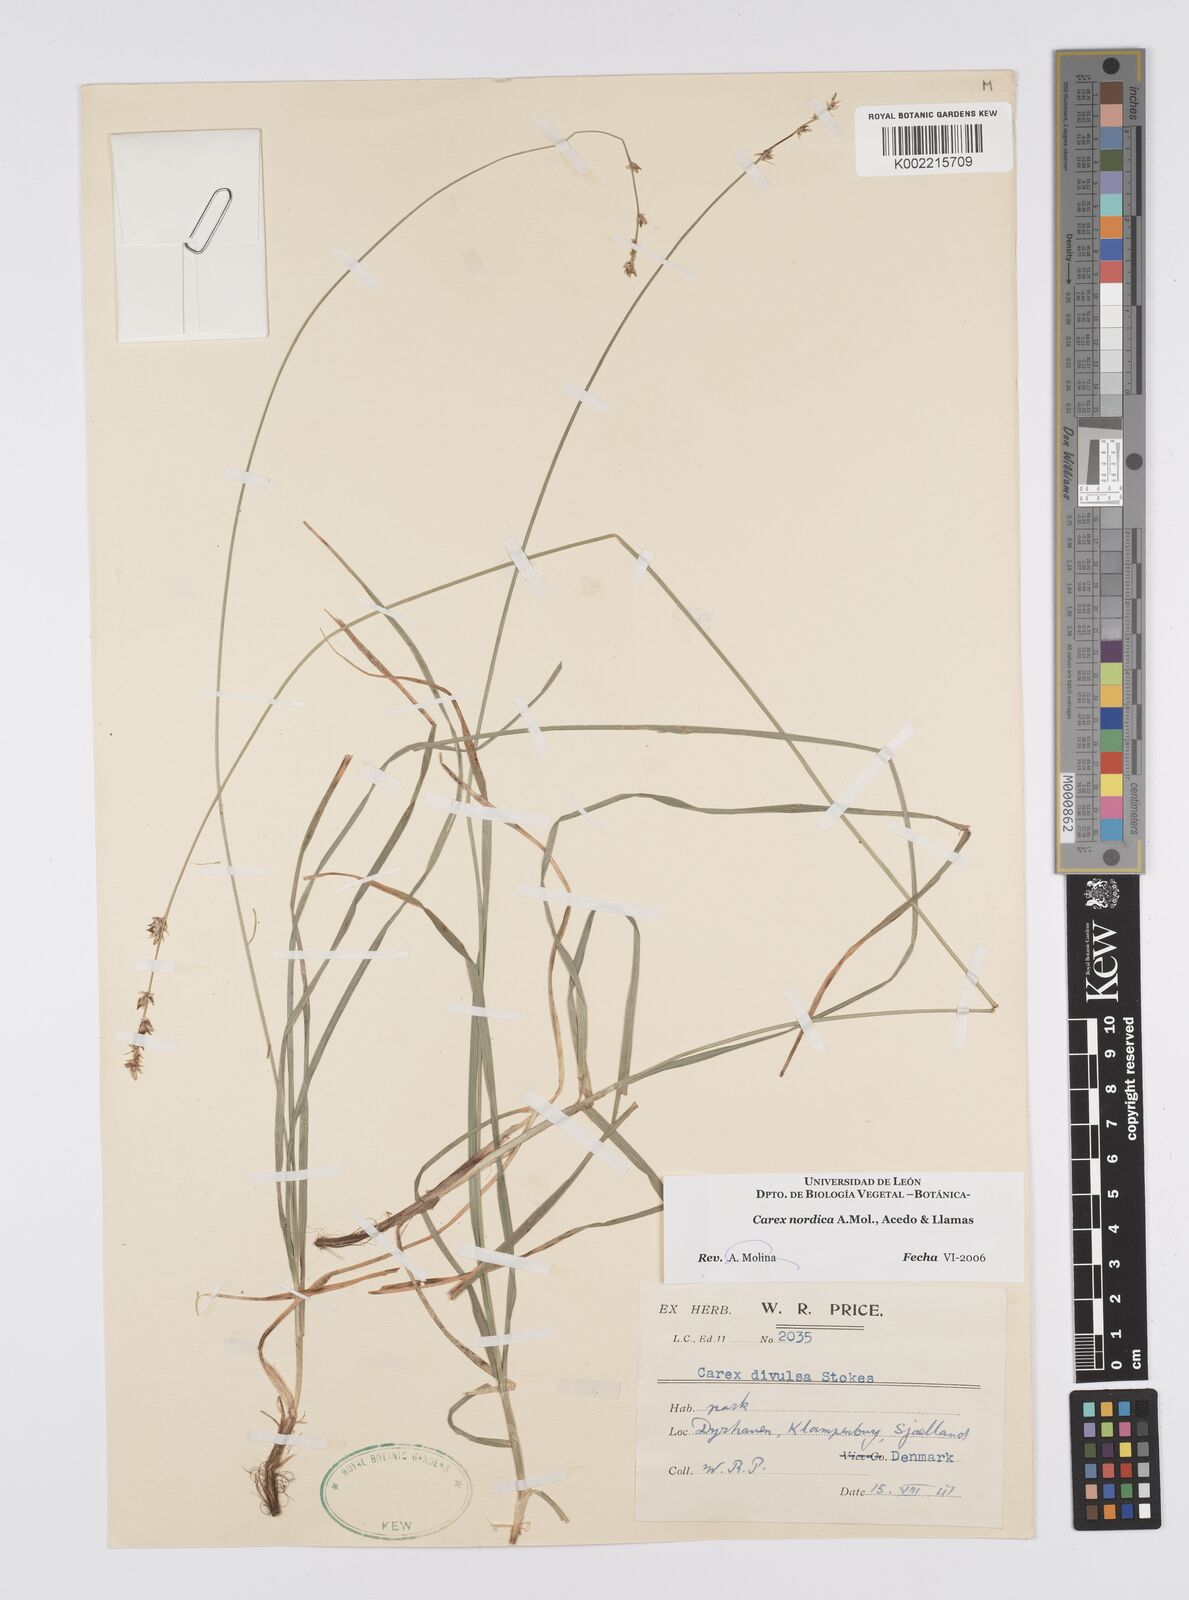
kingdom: Plantae
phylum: Tracheophyta
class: Liliopsida
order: Poales
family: Cyperaceae
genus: Carex
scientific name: Carex nordica
